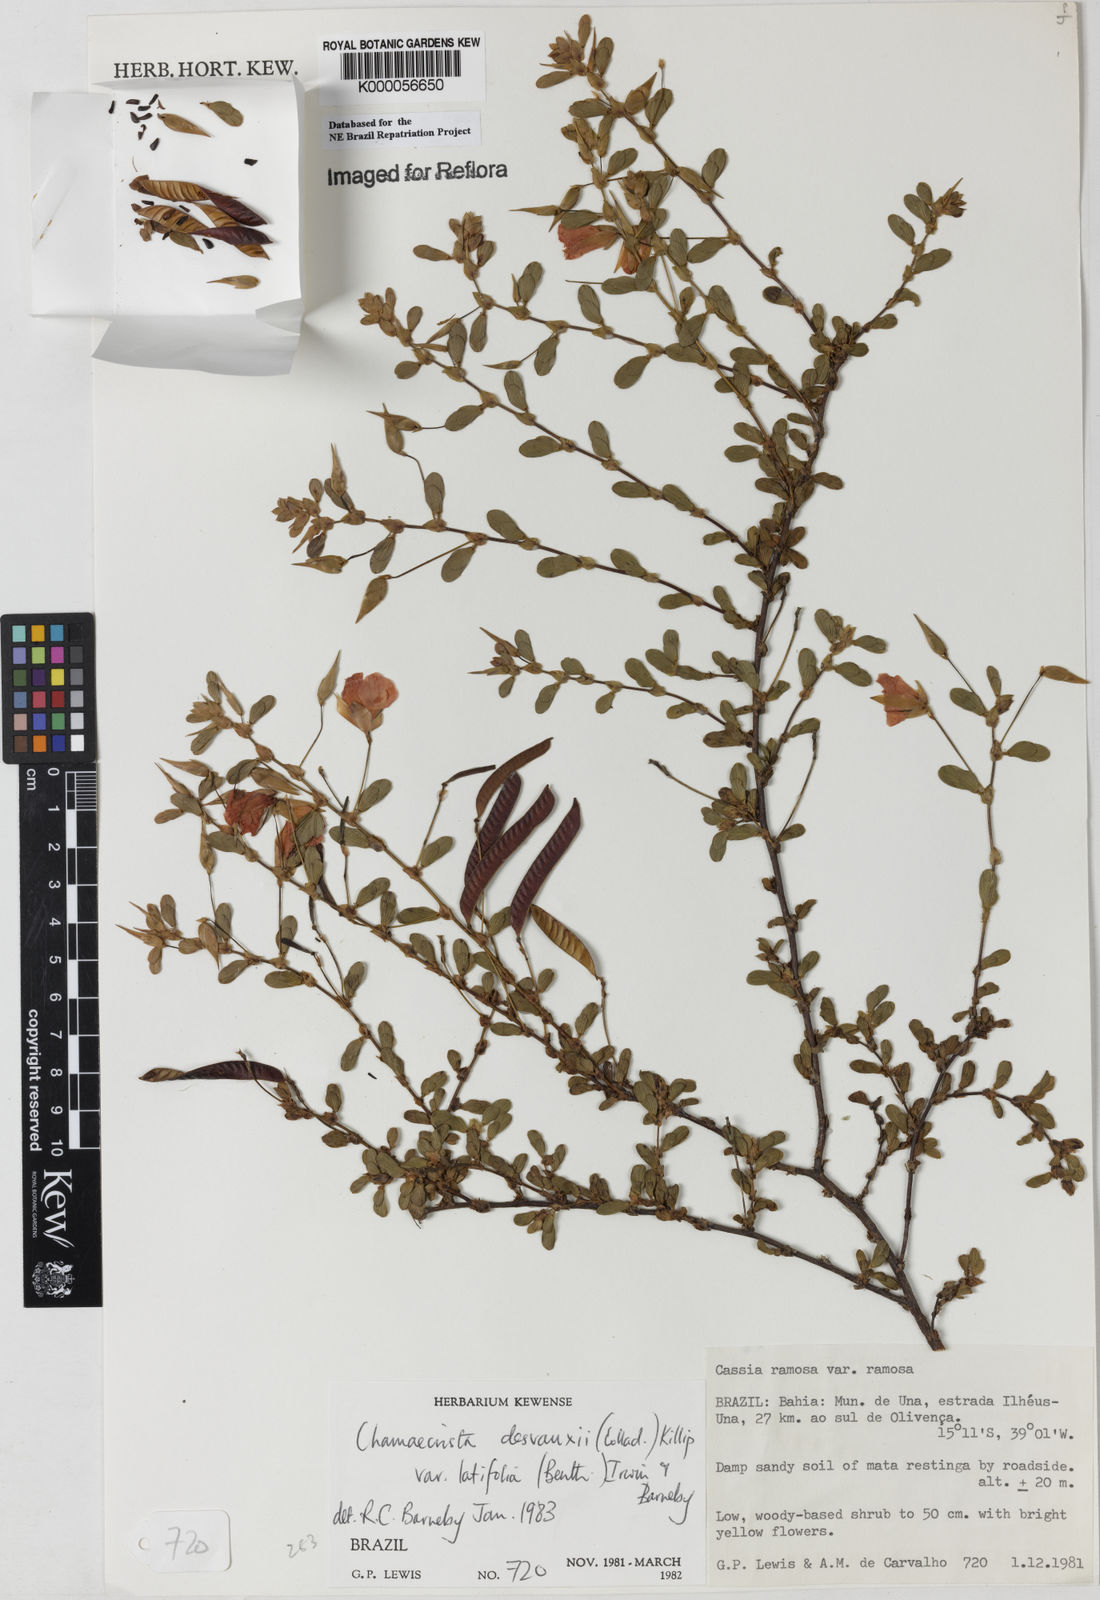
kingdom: Plantae
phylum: Tracheophyta
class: Magnoliopsida
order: Fabales
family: Fabaceae
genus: Chamaecrista
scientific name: Chamaecrista desvauxii
